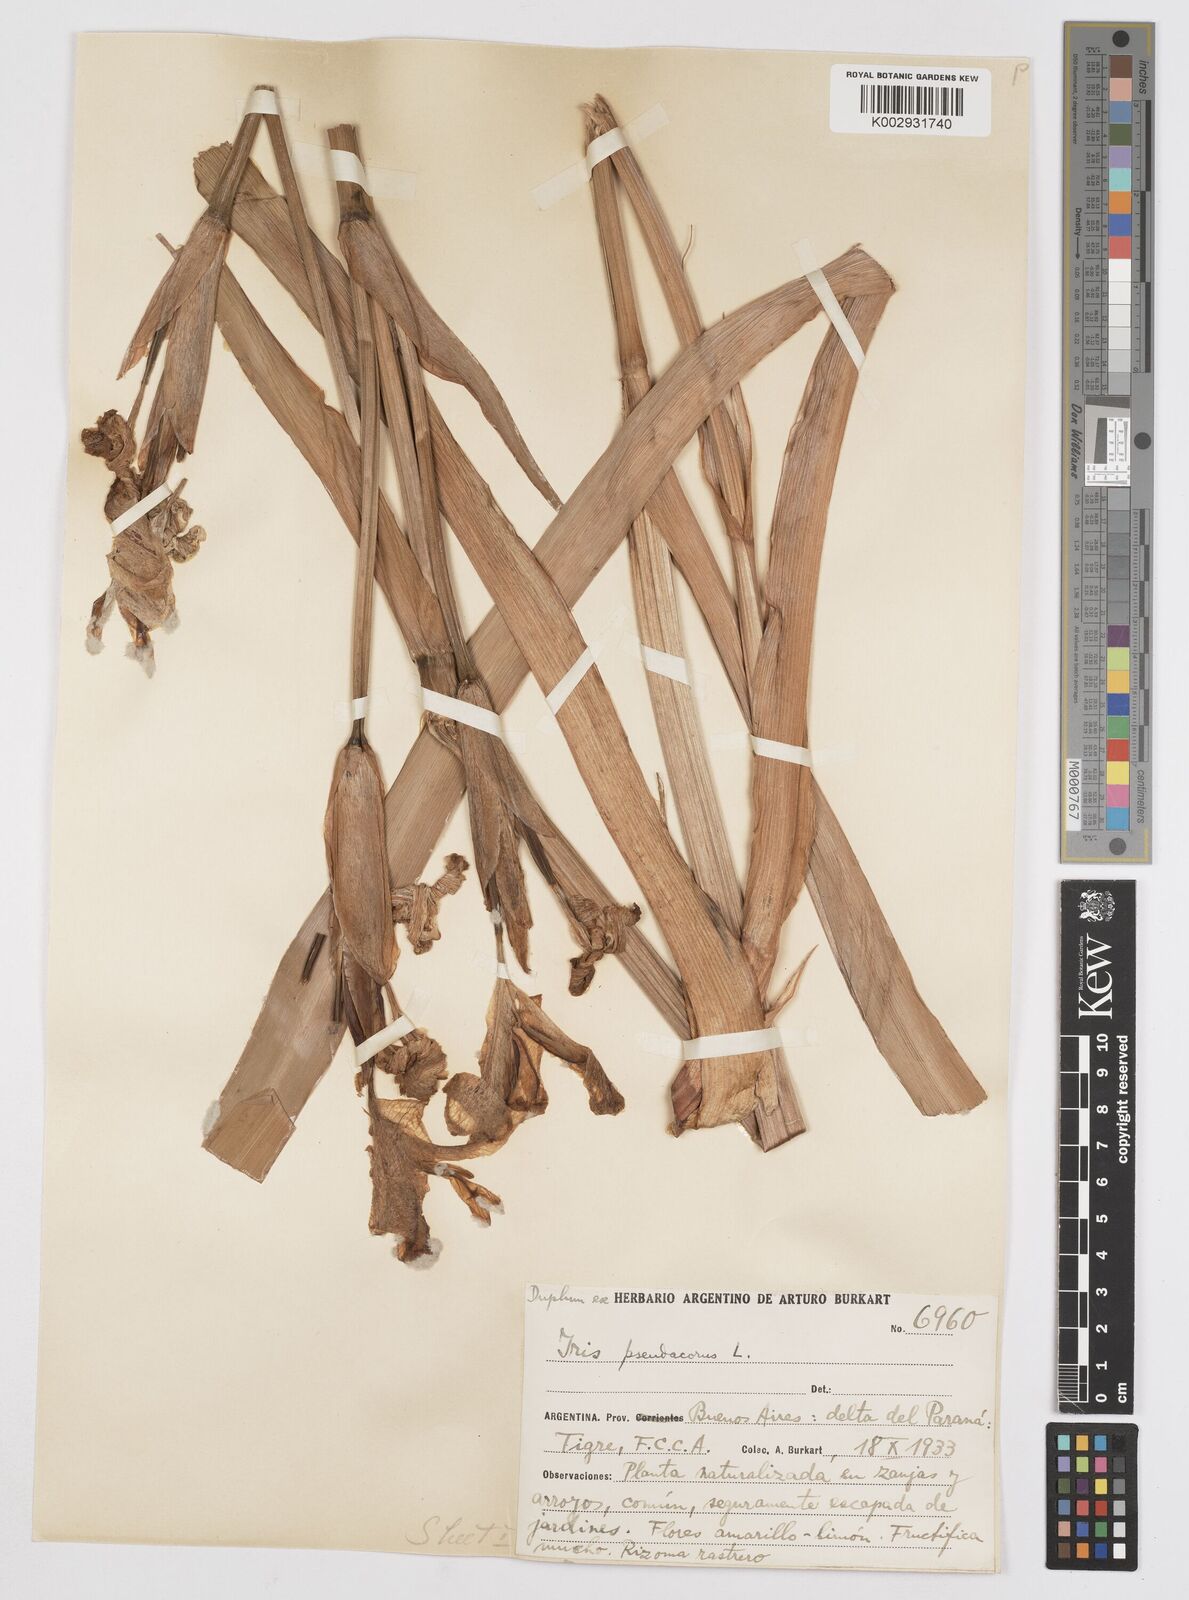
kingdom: Plantae
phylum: Tracheophyta
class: Liliopsida
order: Asparagales
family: Iridaceae
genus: Iris
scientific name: Iris pseudacorus
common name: Yellow flag
